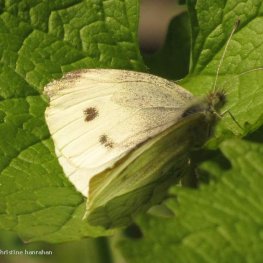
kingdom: Animalia
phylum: Arthropoda
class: Insecta
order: Lepidoptera
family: Pieridae
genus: Pieris
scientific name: Pieris rapae
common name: Cabbage White
